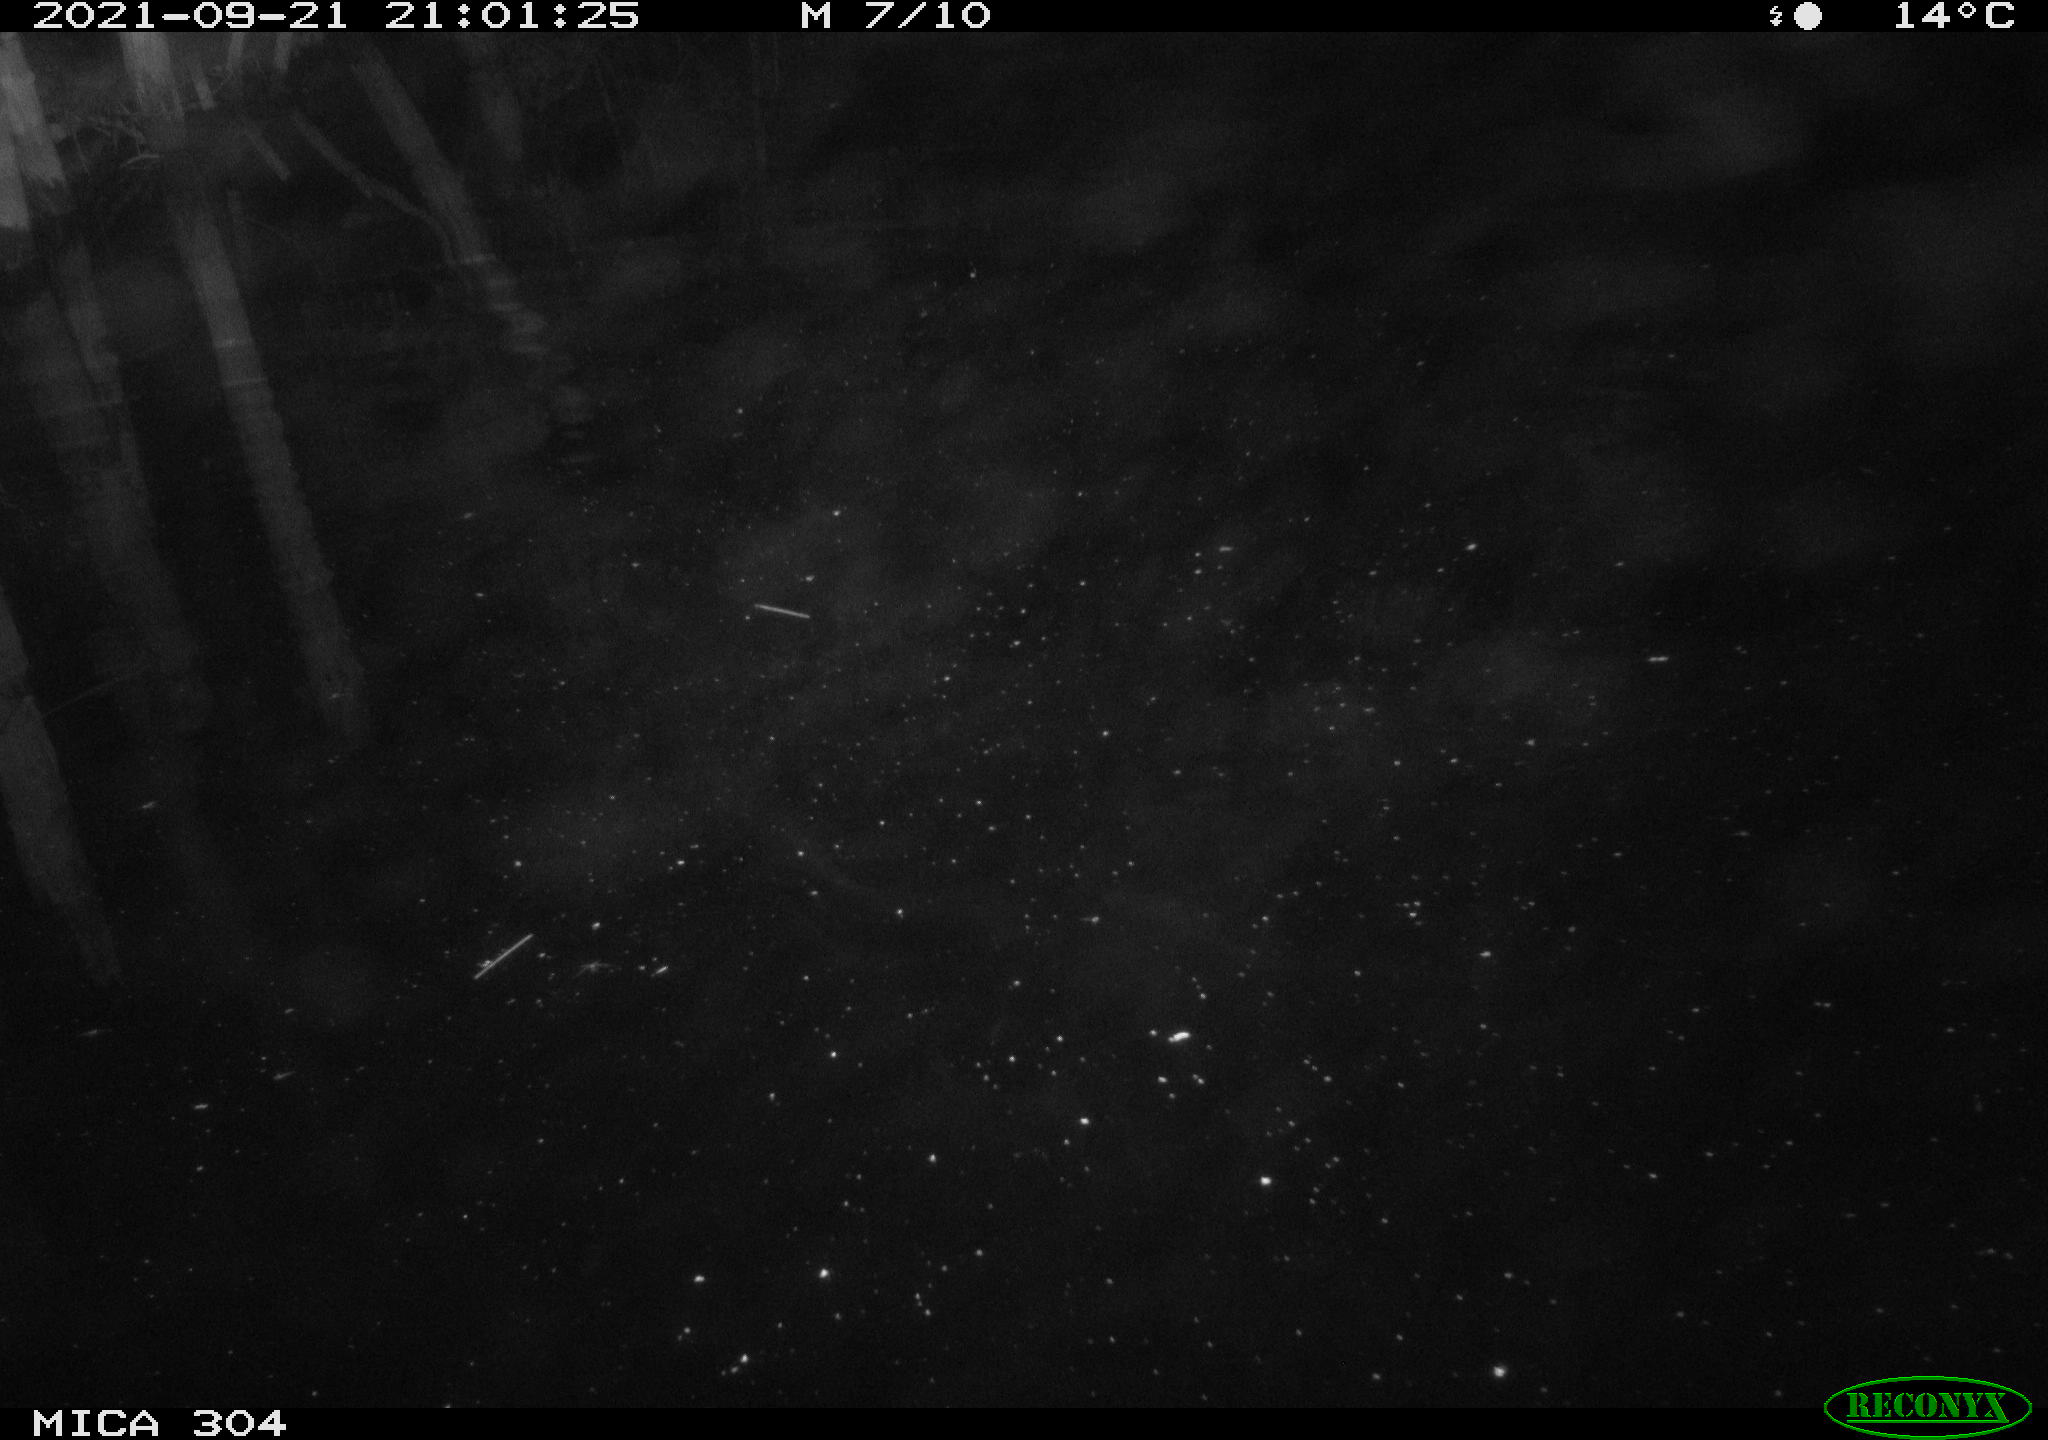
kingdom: Animalia
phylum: Chordata
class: Mammalia
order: Rodentia
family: Muridae
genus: Rattus
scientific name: Rattus norvegicus
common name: Brown rat
